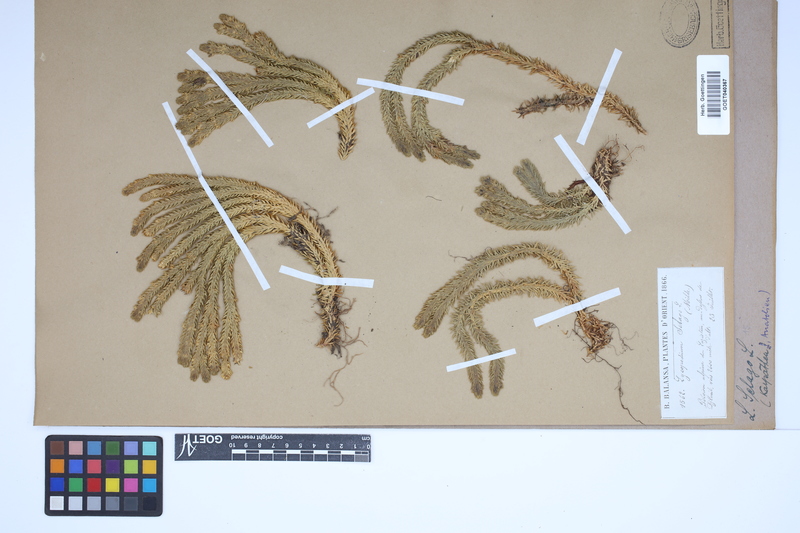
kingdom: Plantae
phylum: Tracheophyta
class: Lycopodiopsida
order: Lycopodiales
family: Lycopodiaceae
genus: Huperzia
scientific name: Huperzia selago
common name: Northern firmoss
